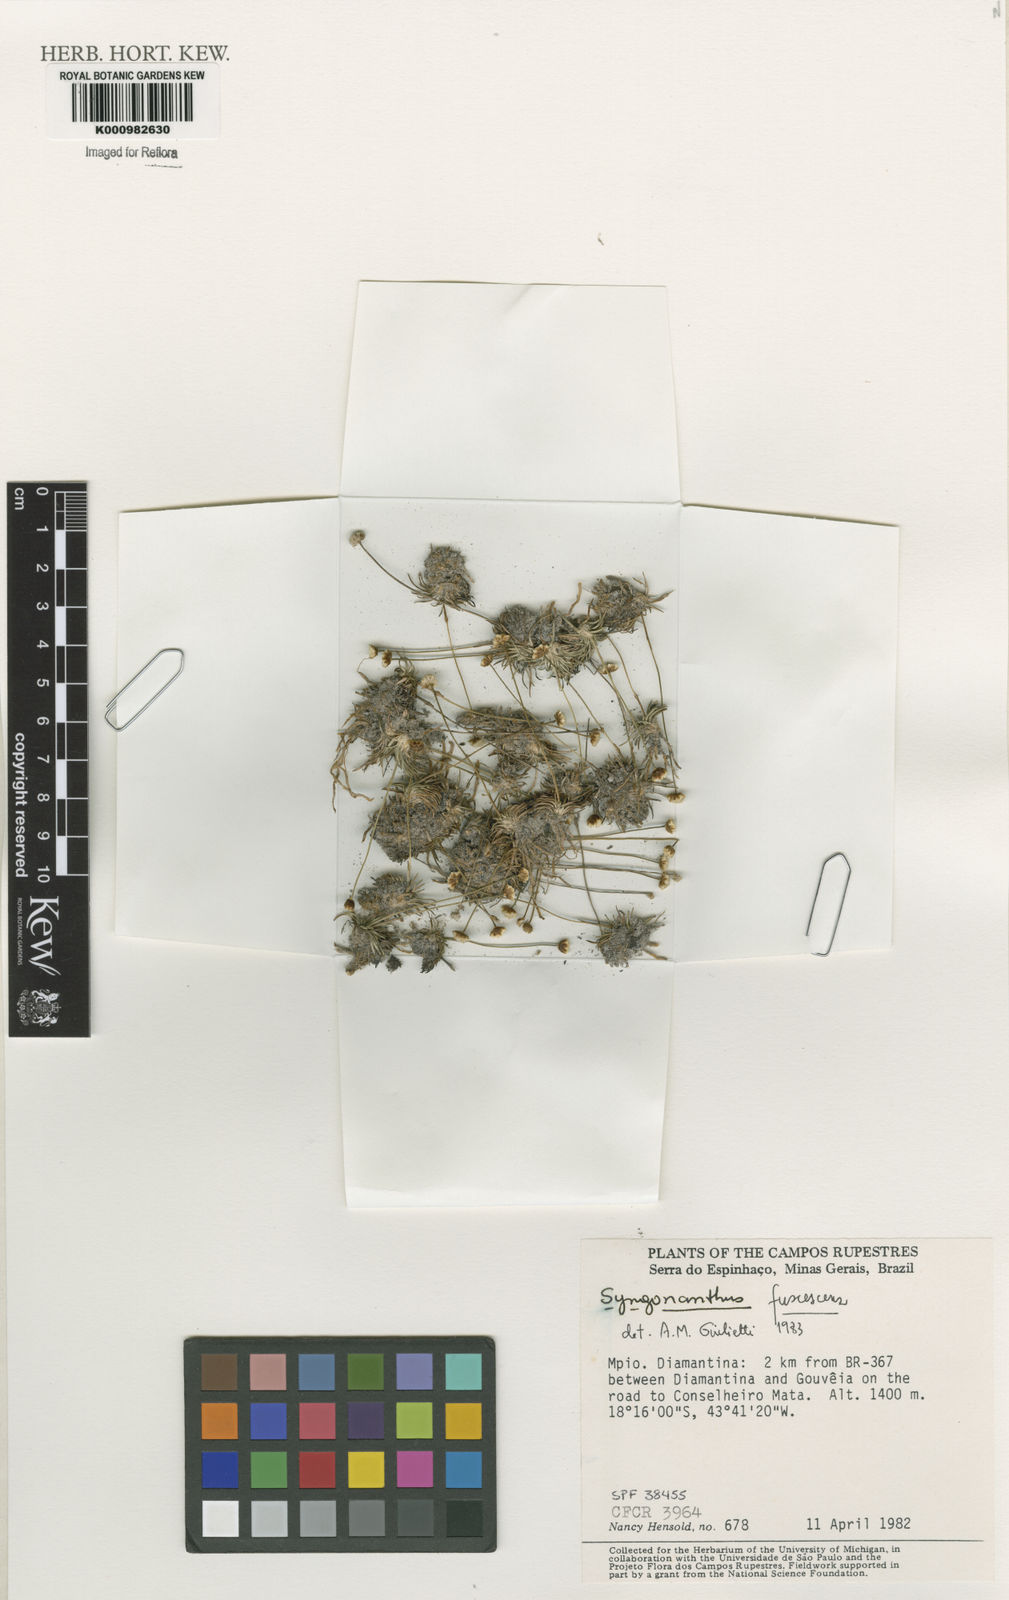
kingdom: Plantae
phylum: Tracheophyta
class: Liliopsida
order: Poales
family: Eriocaulaceae
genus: Syngonanthus
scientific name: Syngonanthus fuscescens
